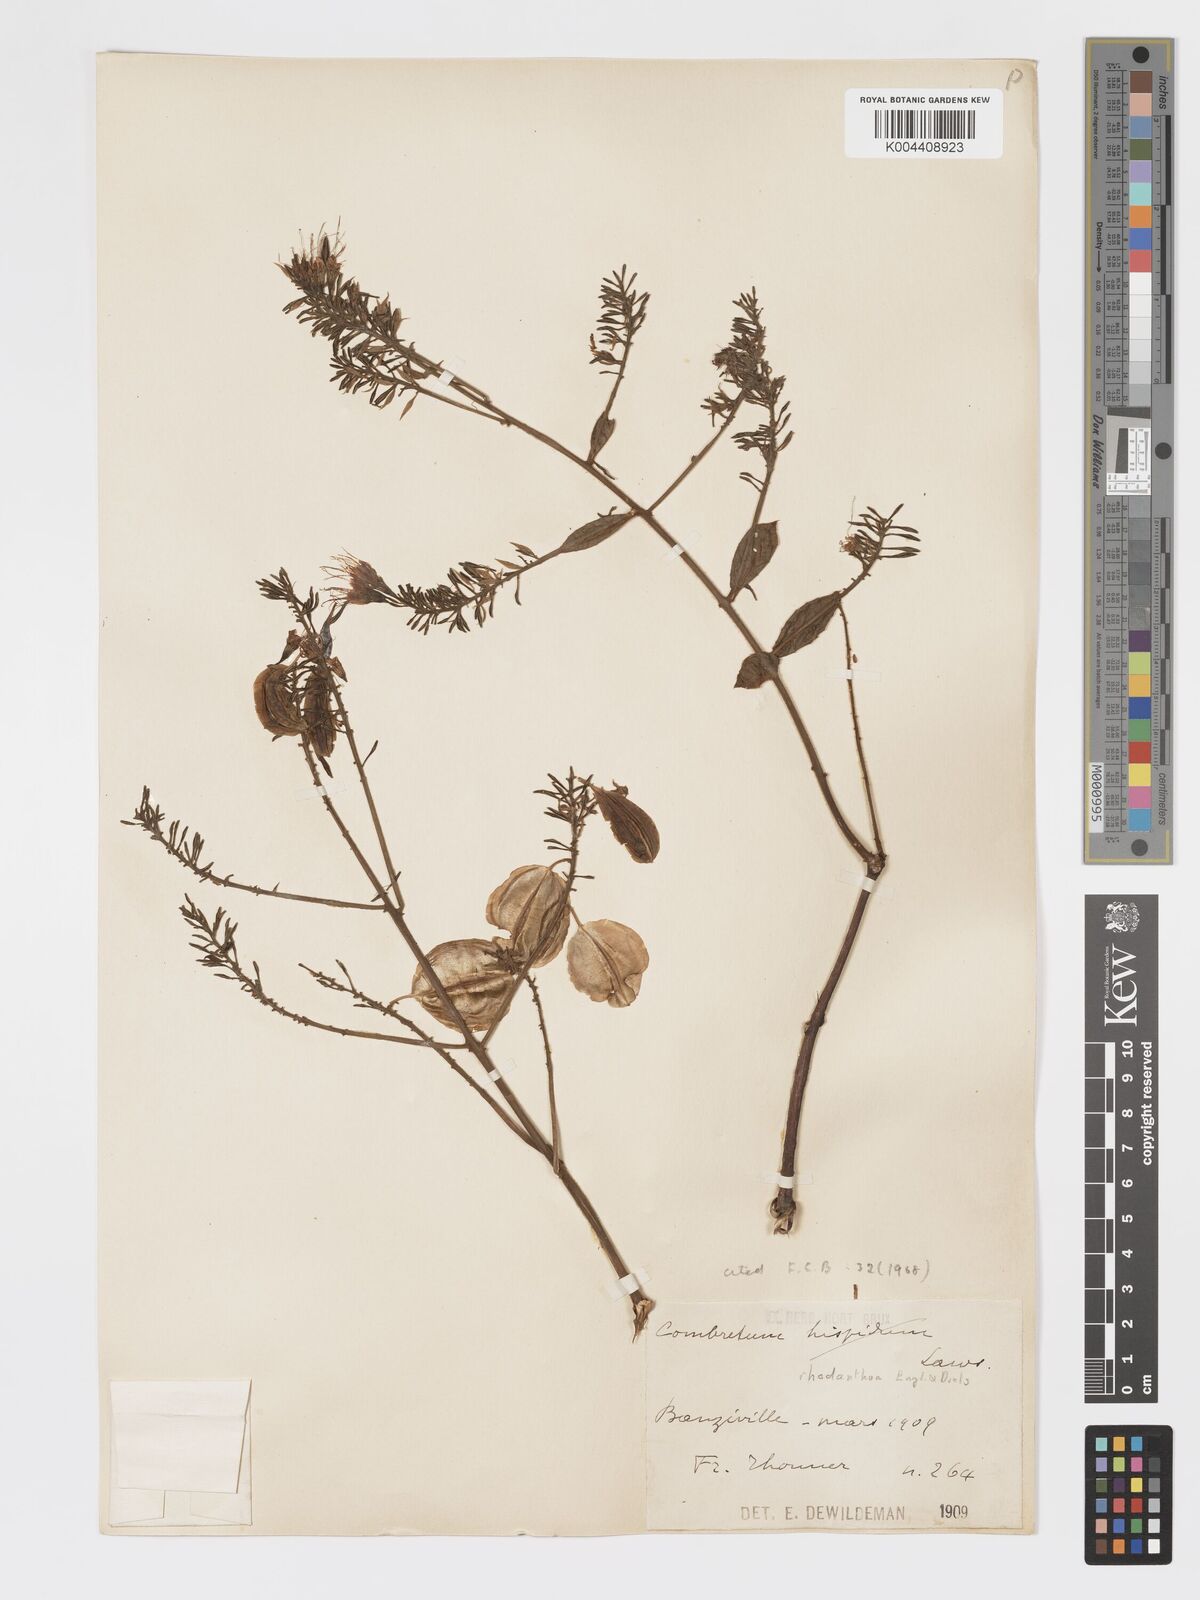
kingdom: Plantae
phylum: Tracheophyta
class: Magnoliopsida
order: Myrtales
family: Combretaceae
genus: Combretum
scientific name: Combretum comosum
